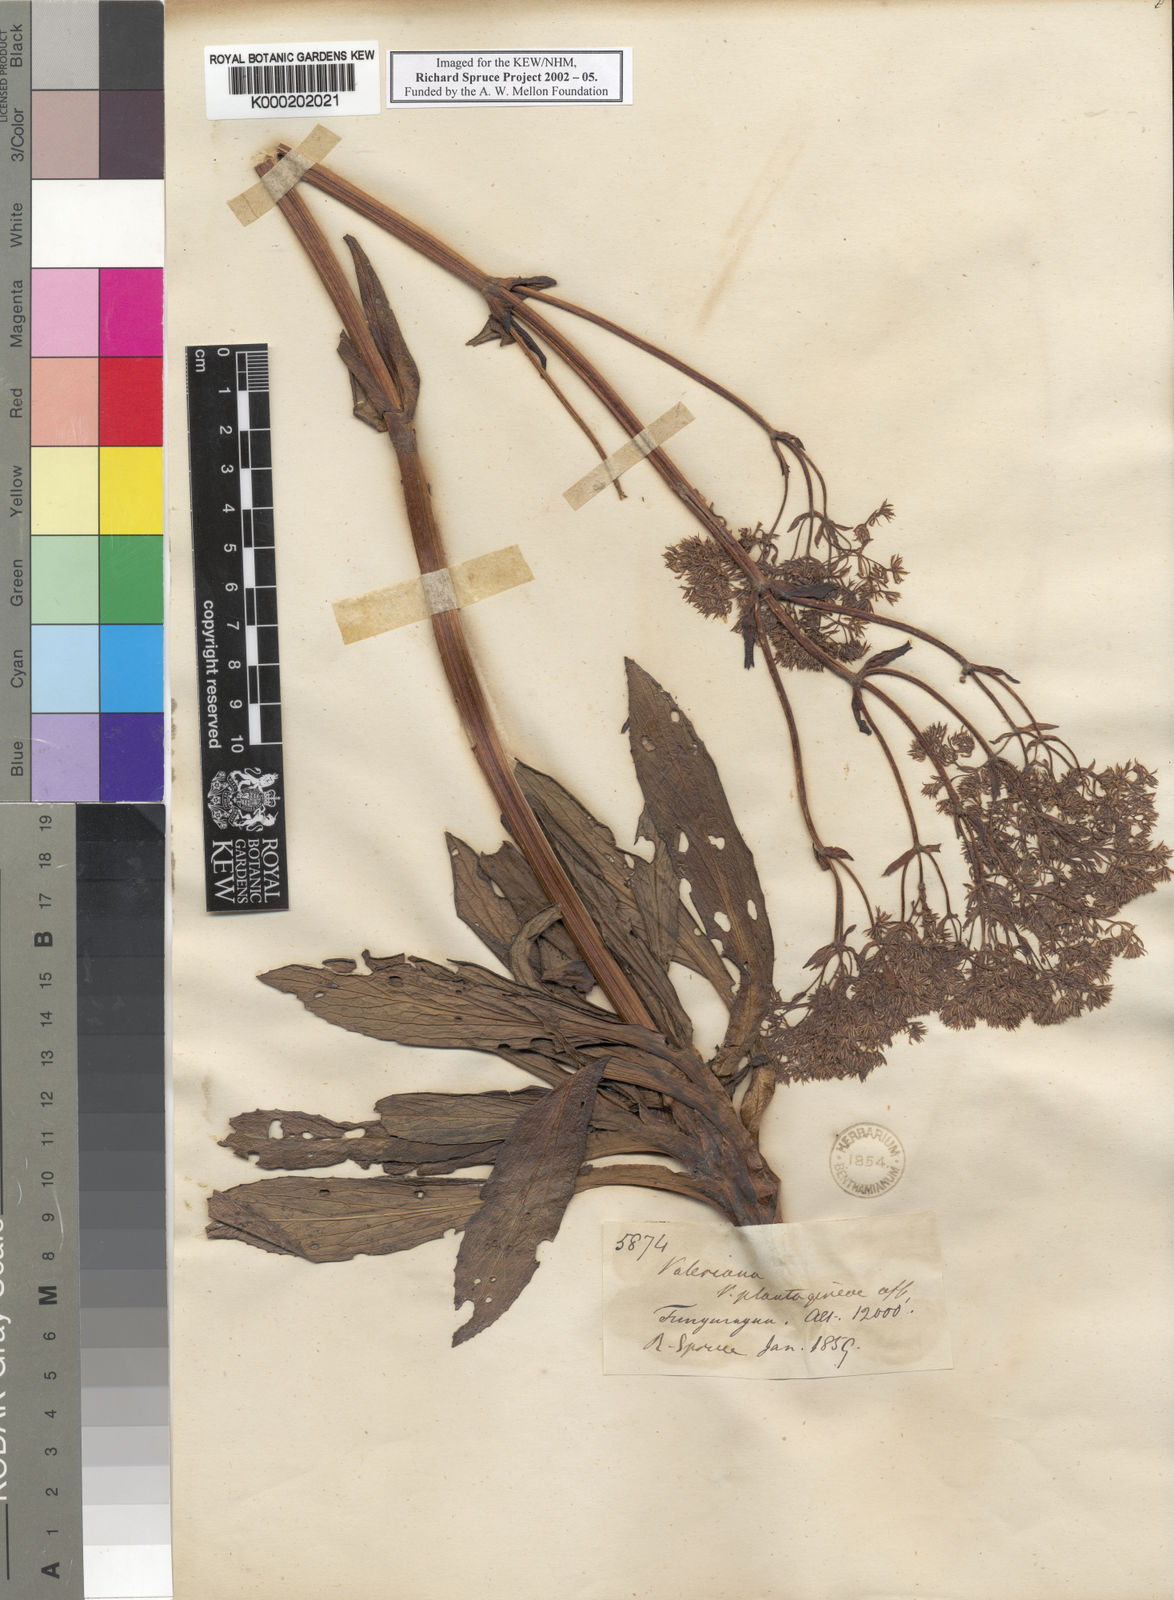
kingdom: Plantae
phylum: Tracheophyta
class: Magnoliopsida
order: Dipsacales
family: Caprifoliaceae
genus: Valeriana
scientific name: Valeriana pilosa
